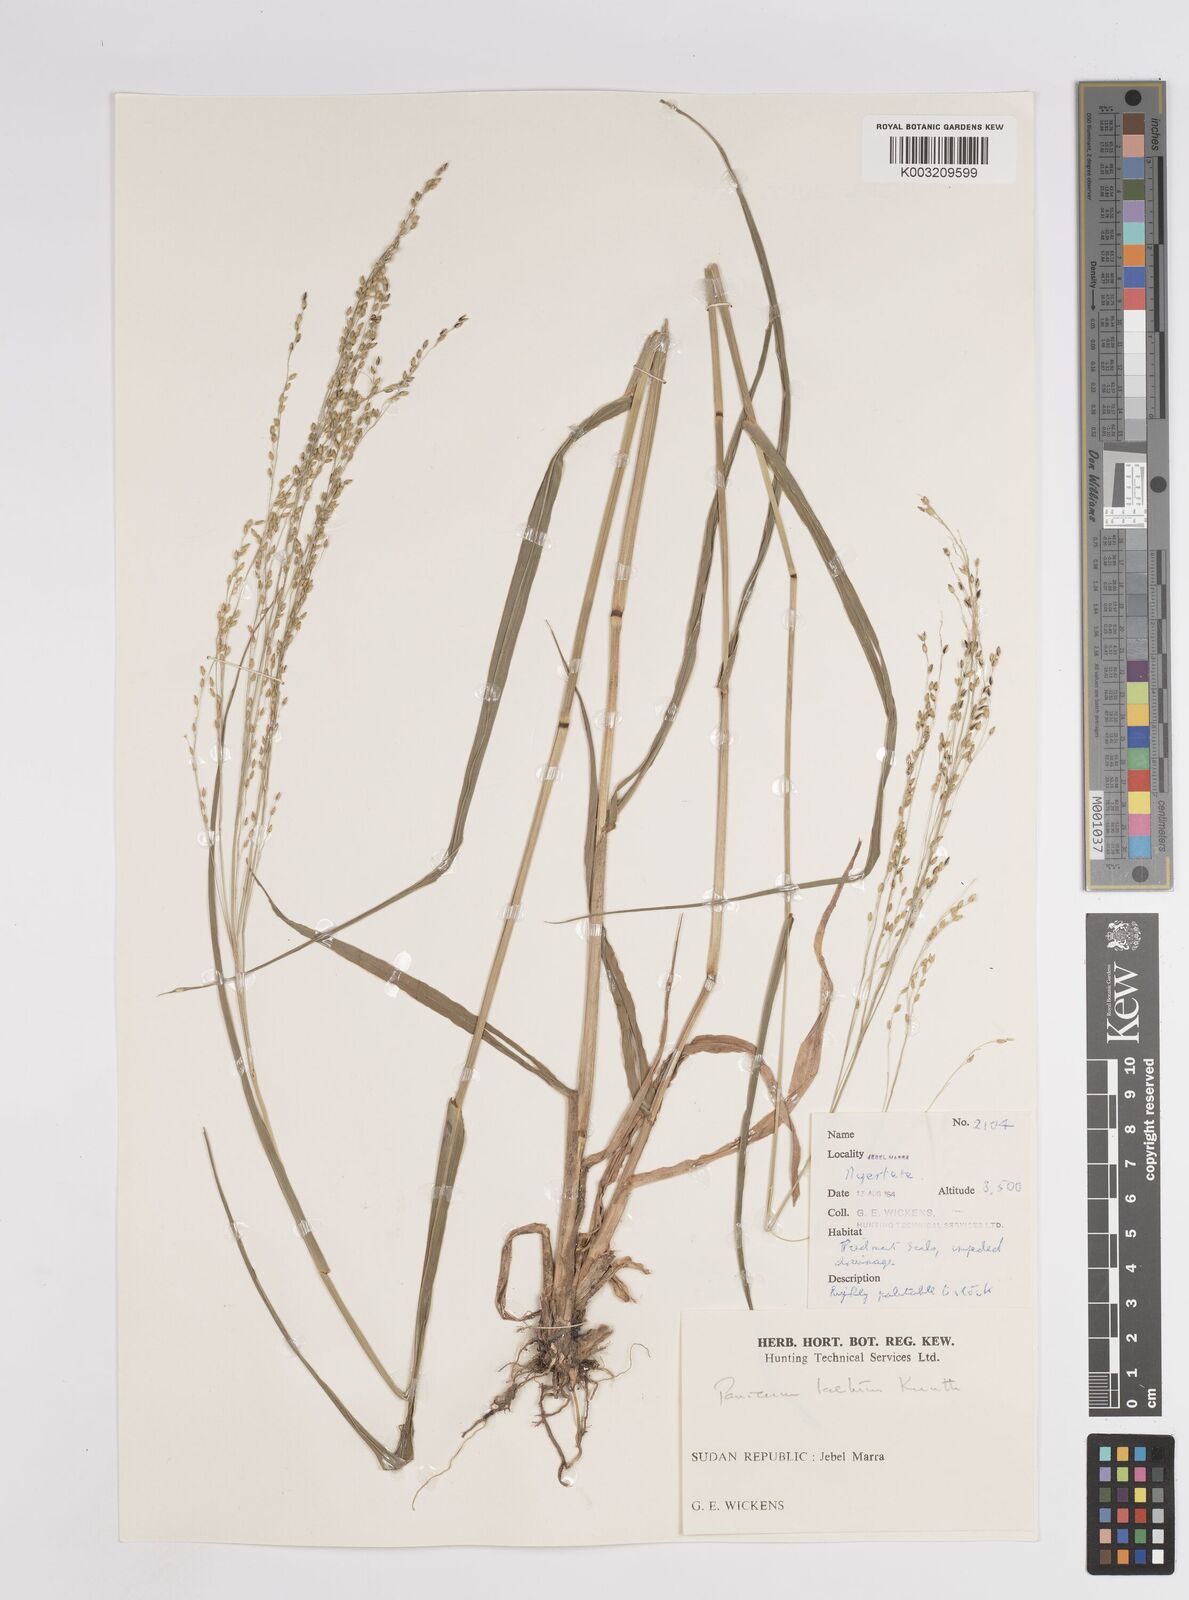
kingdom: Plantae
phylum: Tracheophyta
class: Liliopsida
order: Poales
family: Poaceae
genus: Panicum
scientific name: Panicum subalbidum
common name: Elbow buffalo grass
